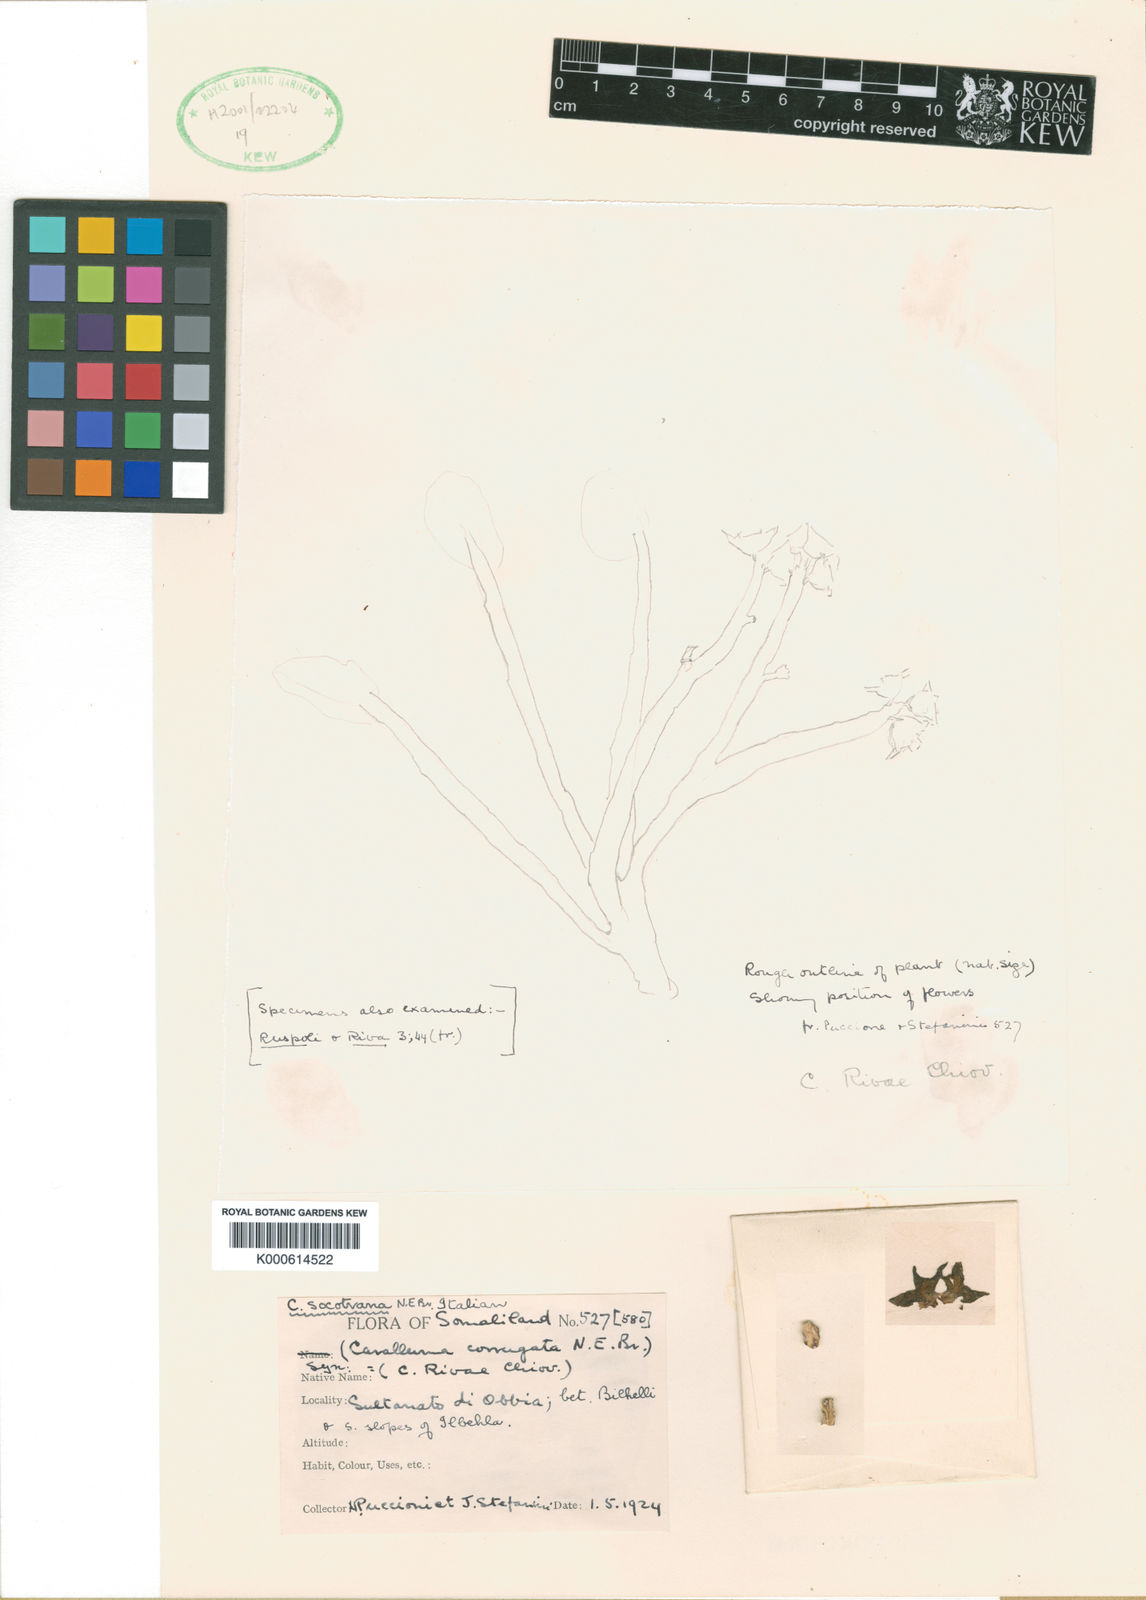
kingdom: Plantae
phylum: Tracheophyta
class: Magnoliopsida
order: Gentianales
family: Apocynaceae
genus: Ceropegia
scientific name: Ceropegia socotrana
